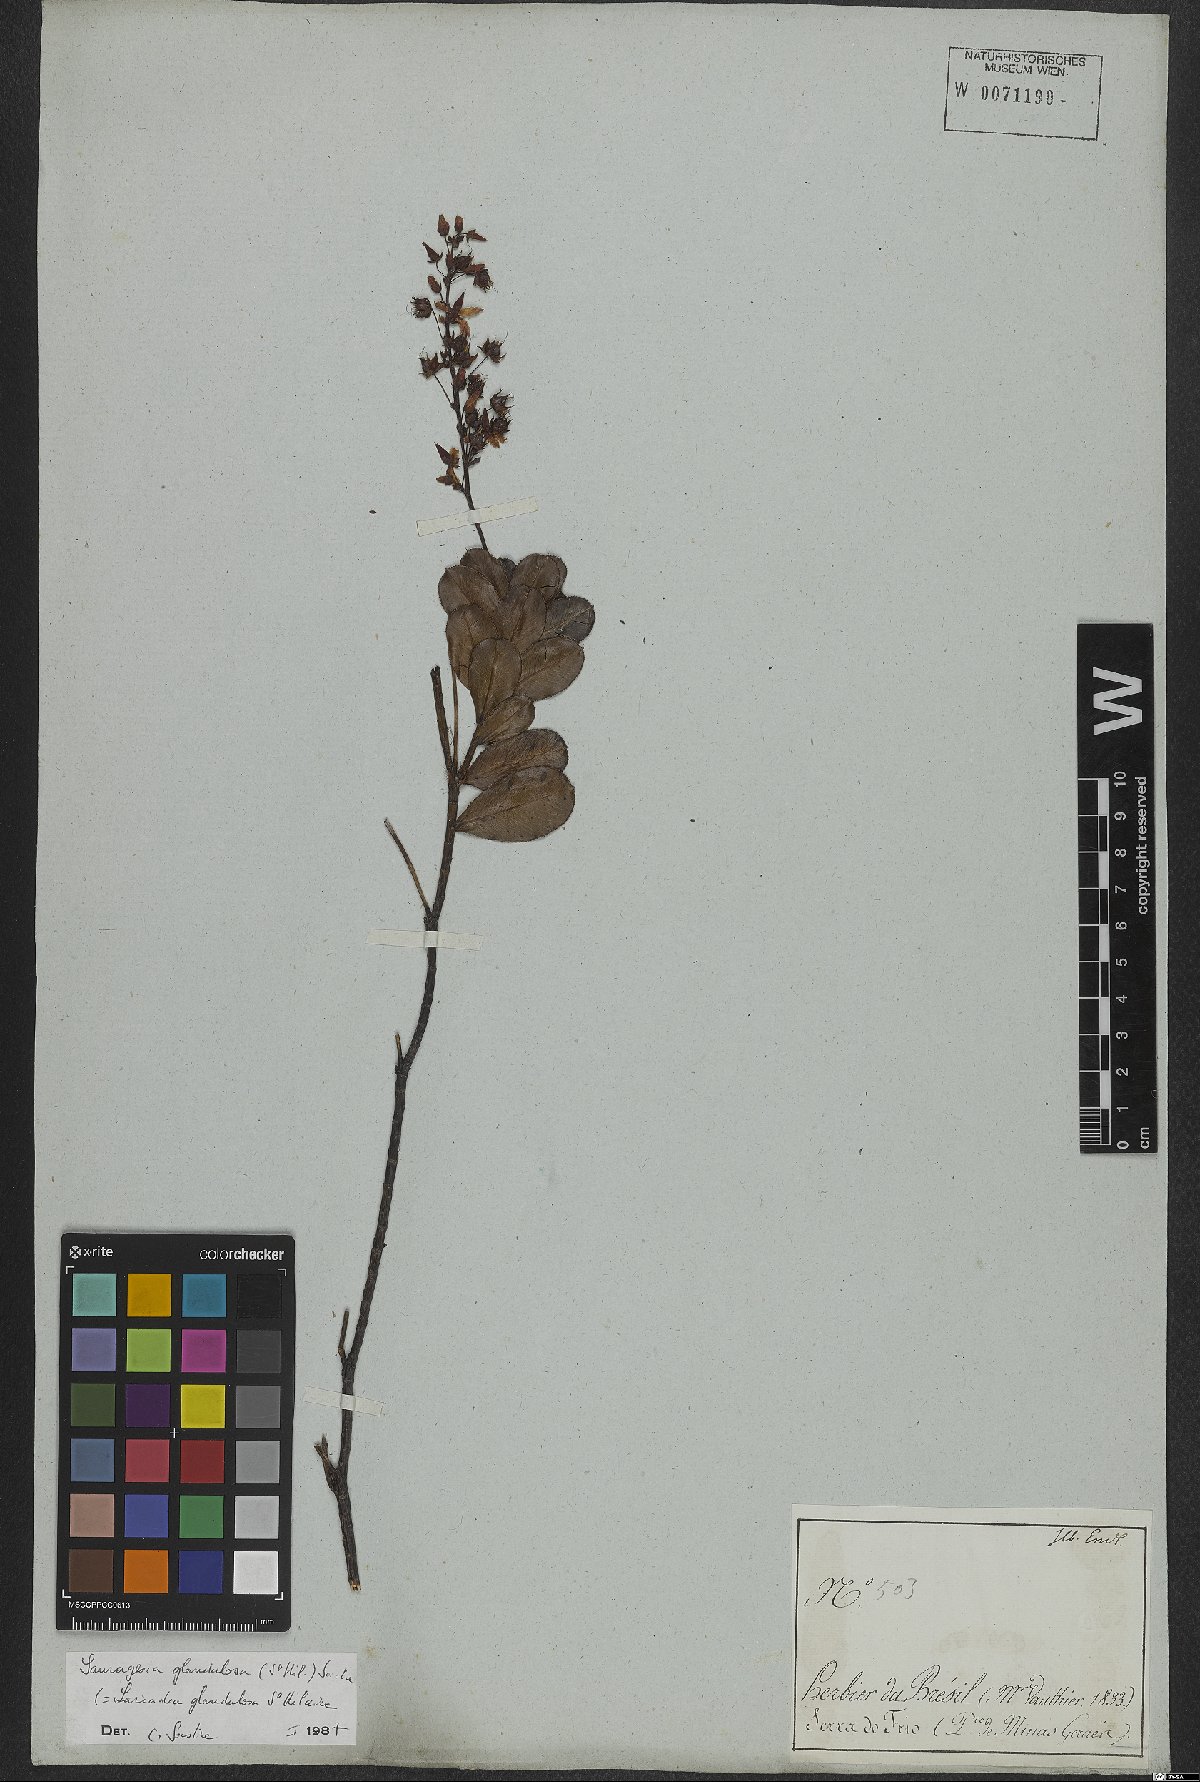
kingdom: Plantae
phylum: Tracheophyta
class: Magnoliopsida
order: Malpighiales
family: Ochnaceae
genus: Sauvagesia
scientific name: Sauvagesia glandulosa
